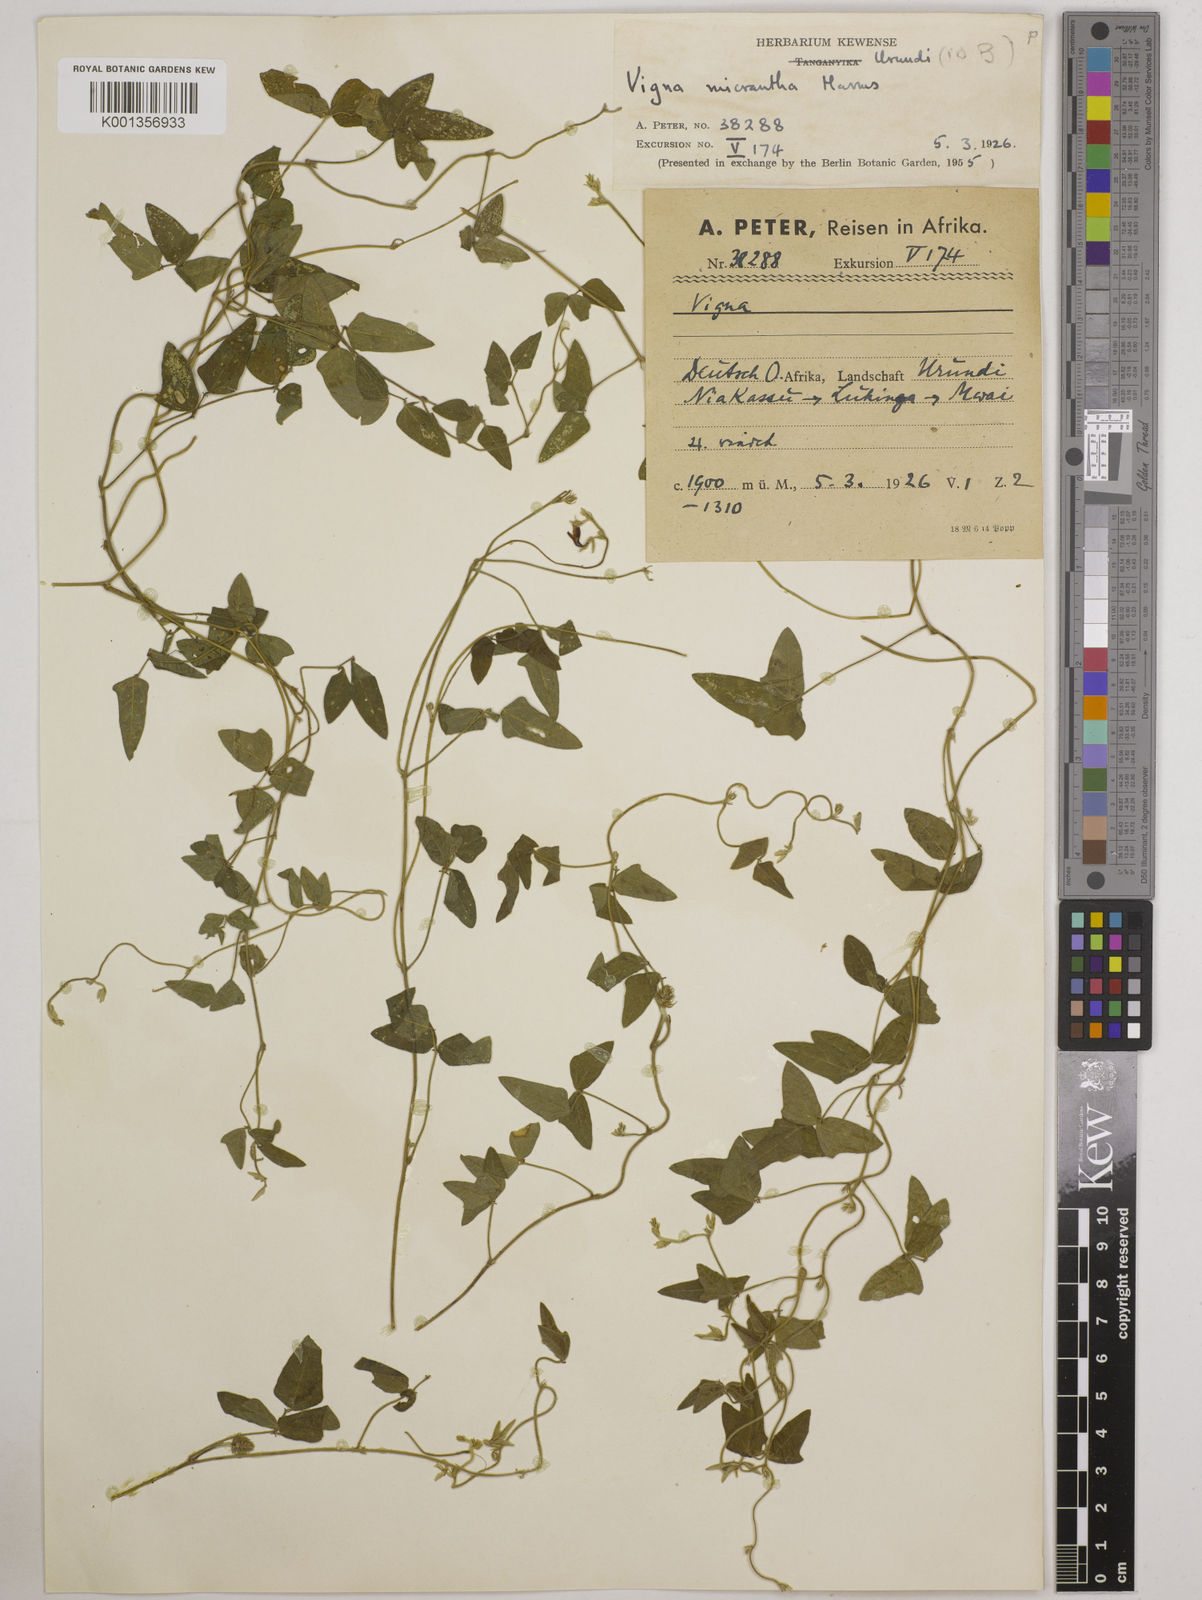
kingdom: Plantae
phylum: Tracheophyta
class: Magnoliopsida
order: Fabales
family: Fabaceae
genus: Vigna
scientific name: Vigna comosa
